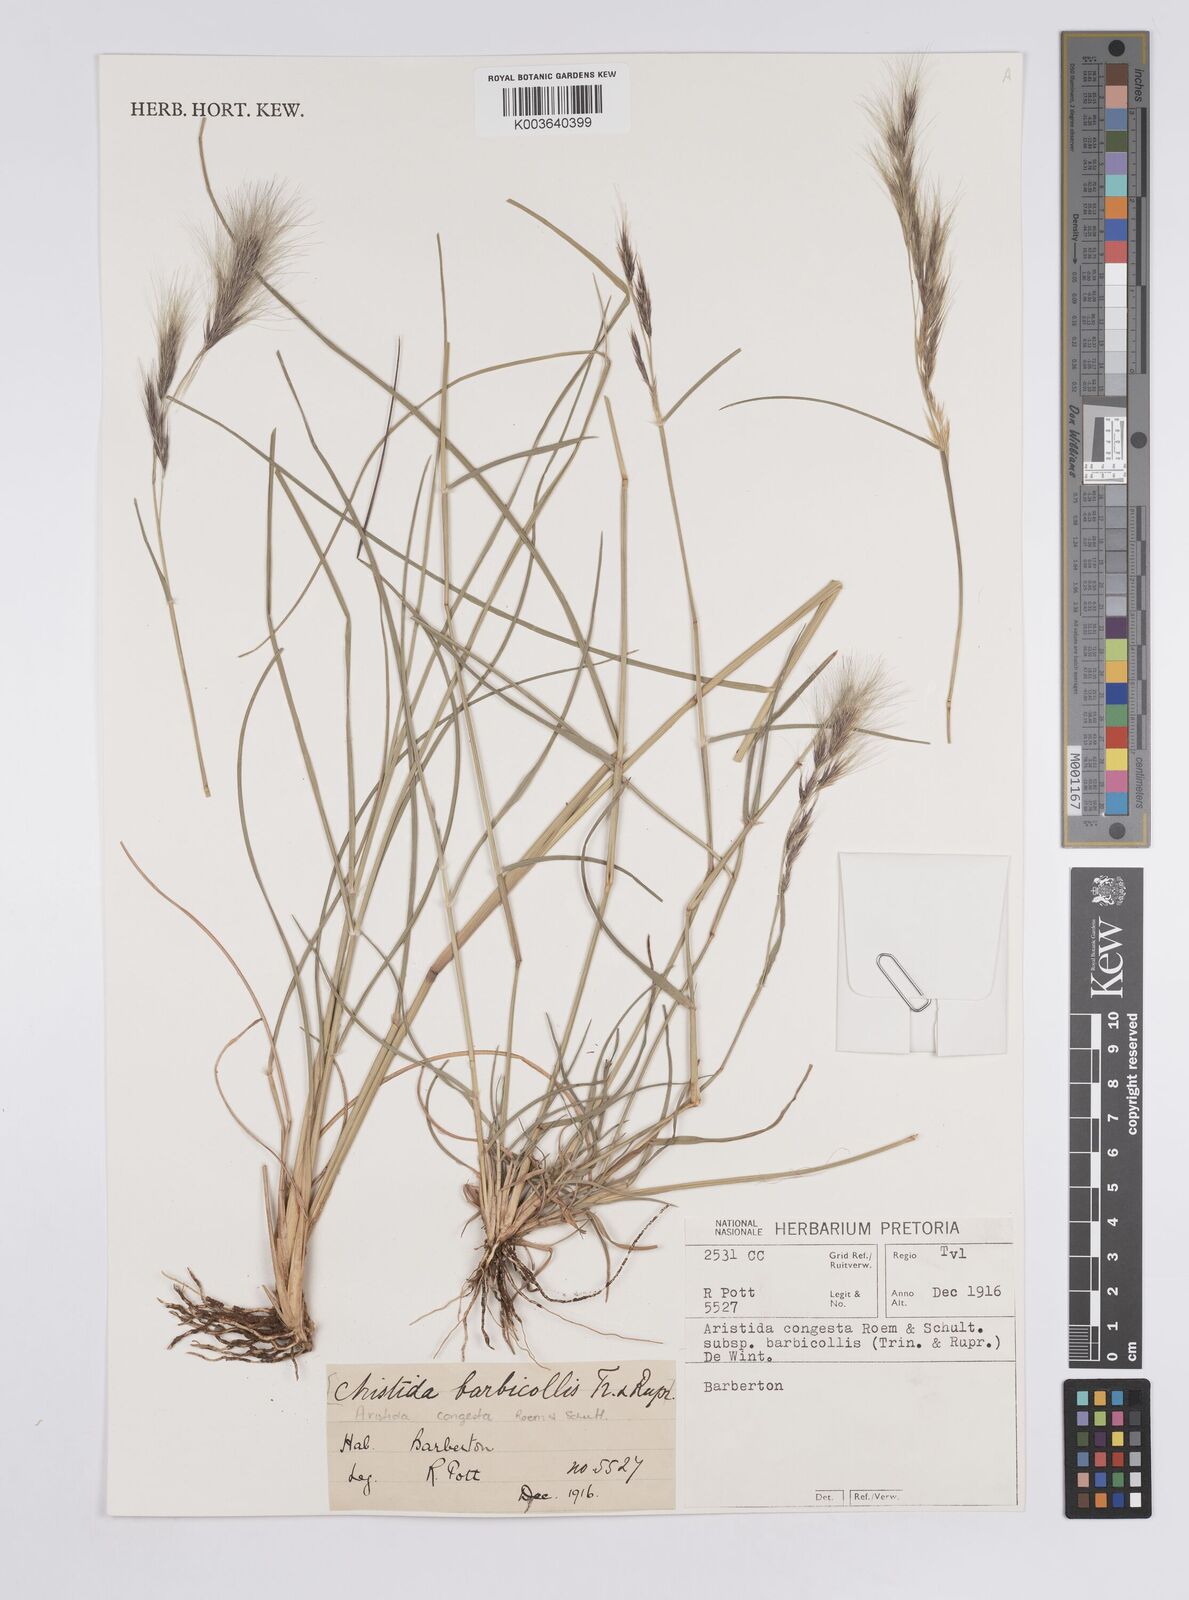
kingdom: Plantae
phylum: Tracheophyta
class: Liliopsida
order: Poales
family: Poaceae
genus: Aristida
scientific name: Aristida barbicollis
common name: Spreading prickle grass
